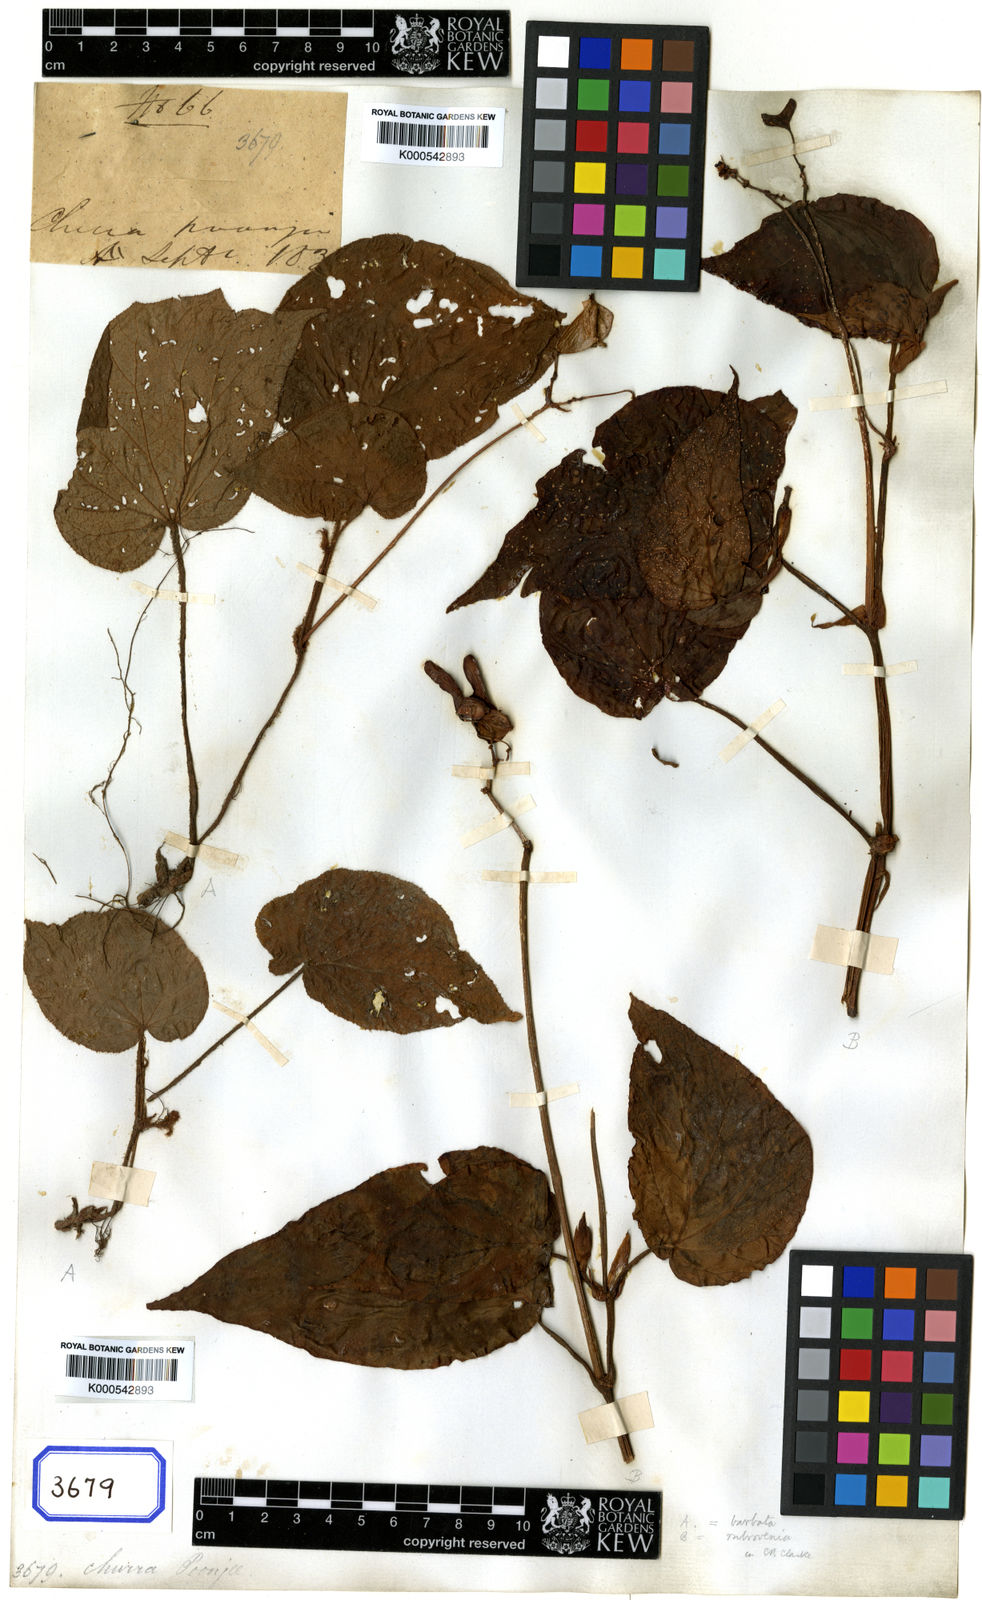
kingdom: Plantae
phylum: Tracheophyta
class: Magnoliopsida
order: Cucurbitales
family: Begoniaceae
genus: Begonia
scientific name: Begonia
